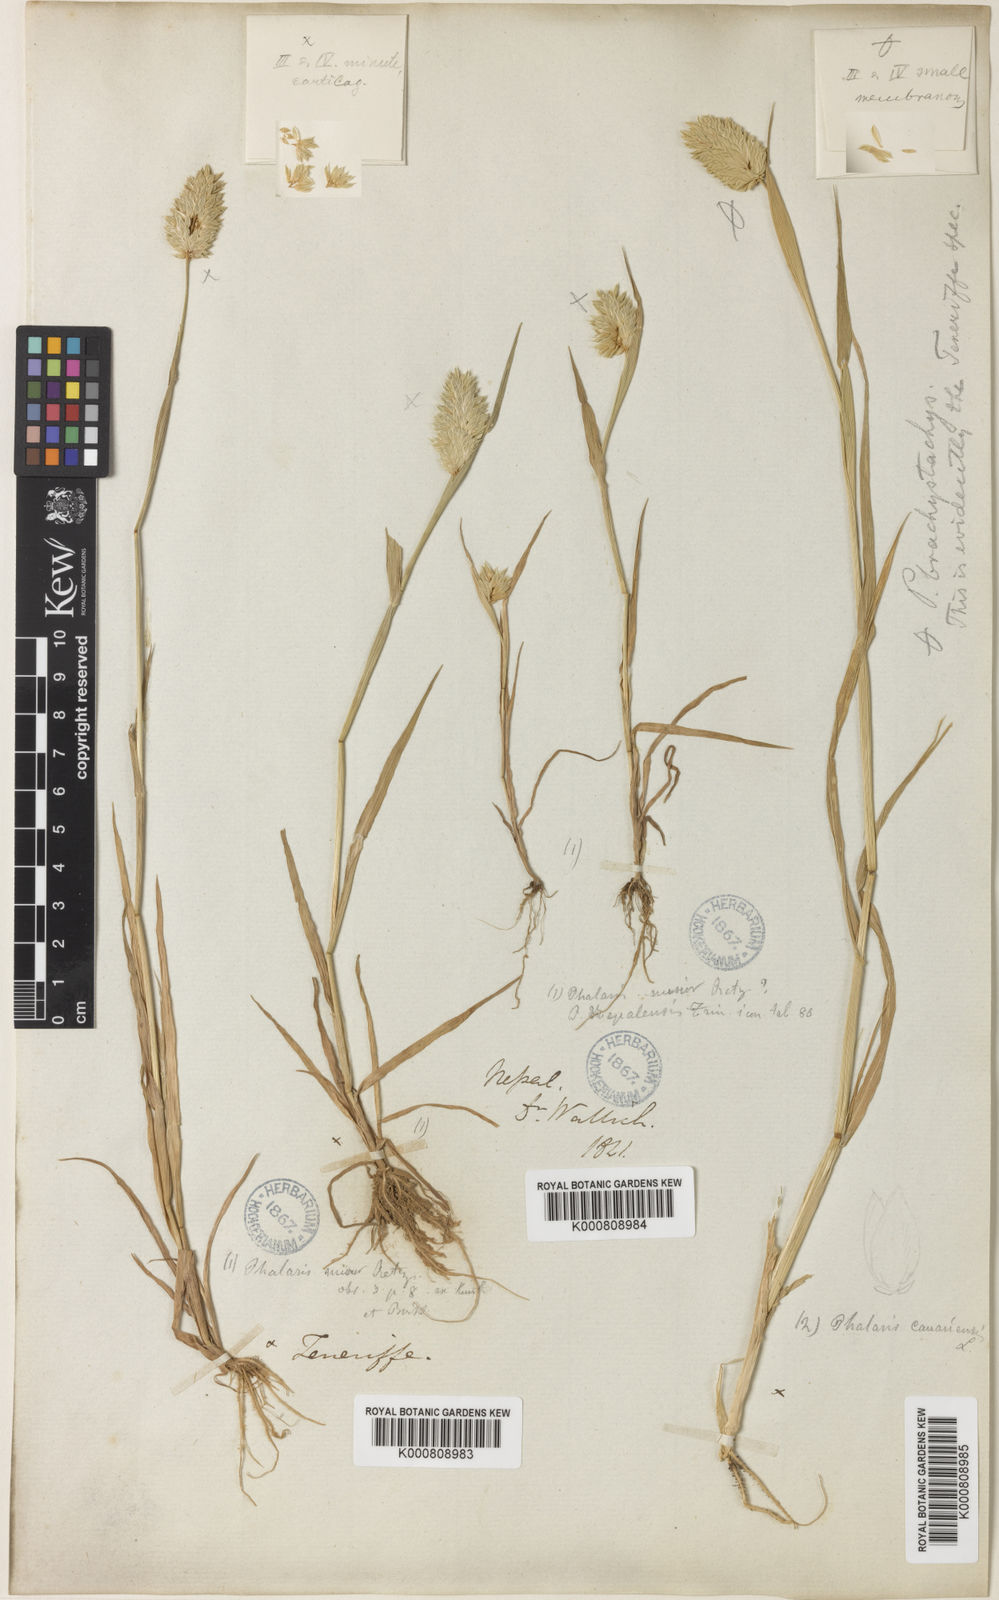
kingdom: Plantae
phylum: Tracheophyta
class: Liliopsida
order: Poales
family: Poaceae
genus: Phalaris
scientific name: Phalaris minor
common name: Littleseed canarygrass
